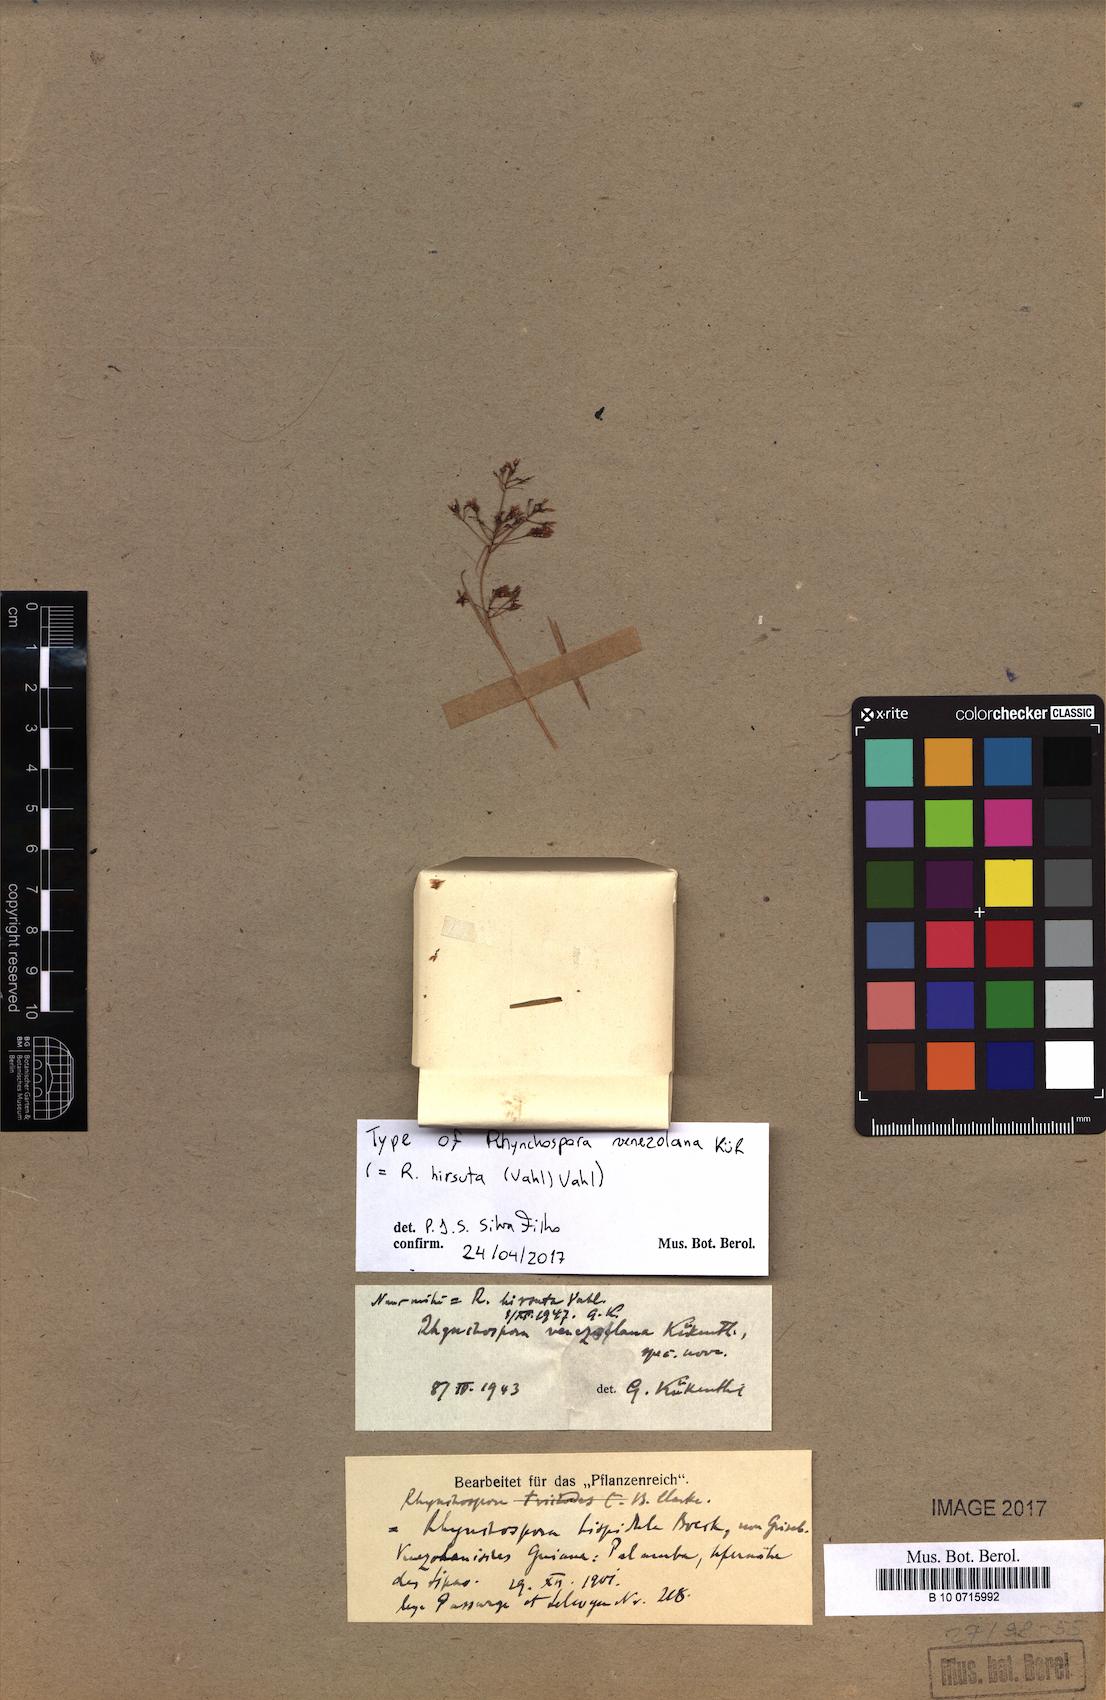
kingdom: Plantae
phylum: Tracheophyta
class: Liliopsida
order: Poales
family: Cyperaceae
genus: Rhynchospora
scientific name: Rhynchospora hirsuta
